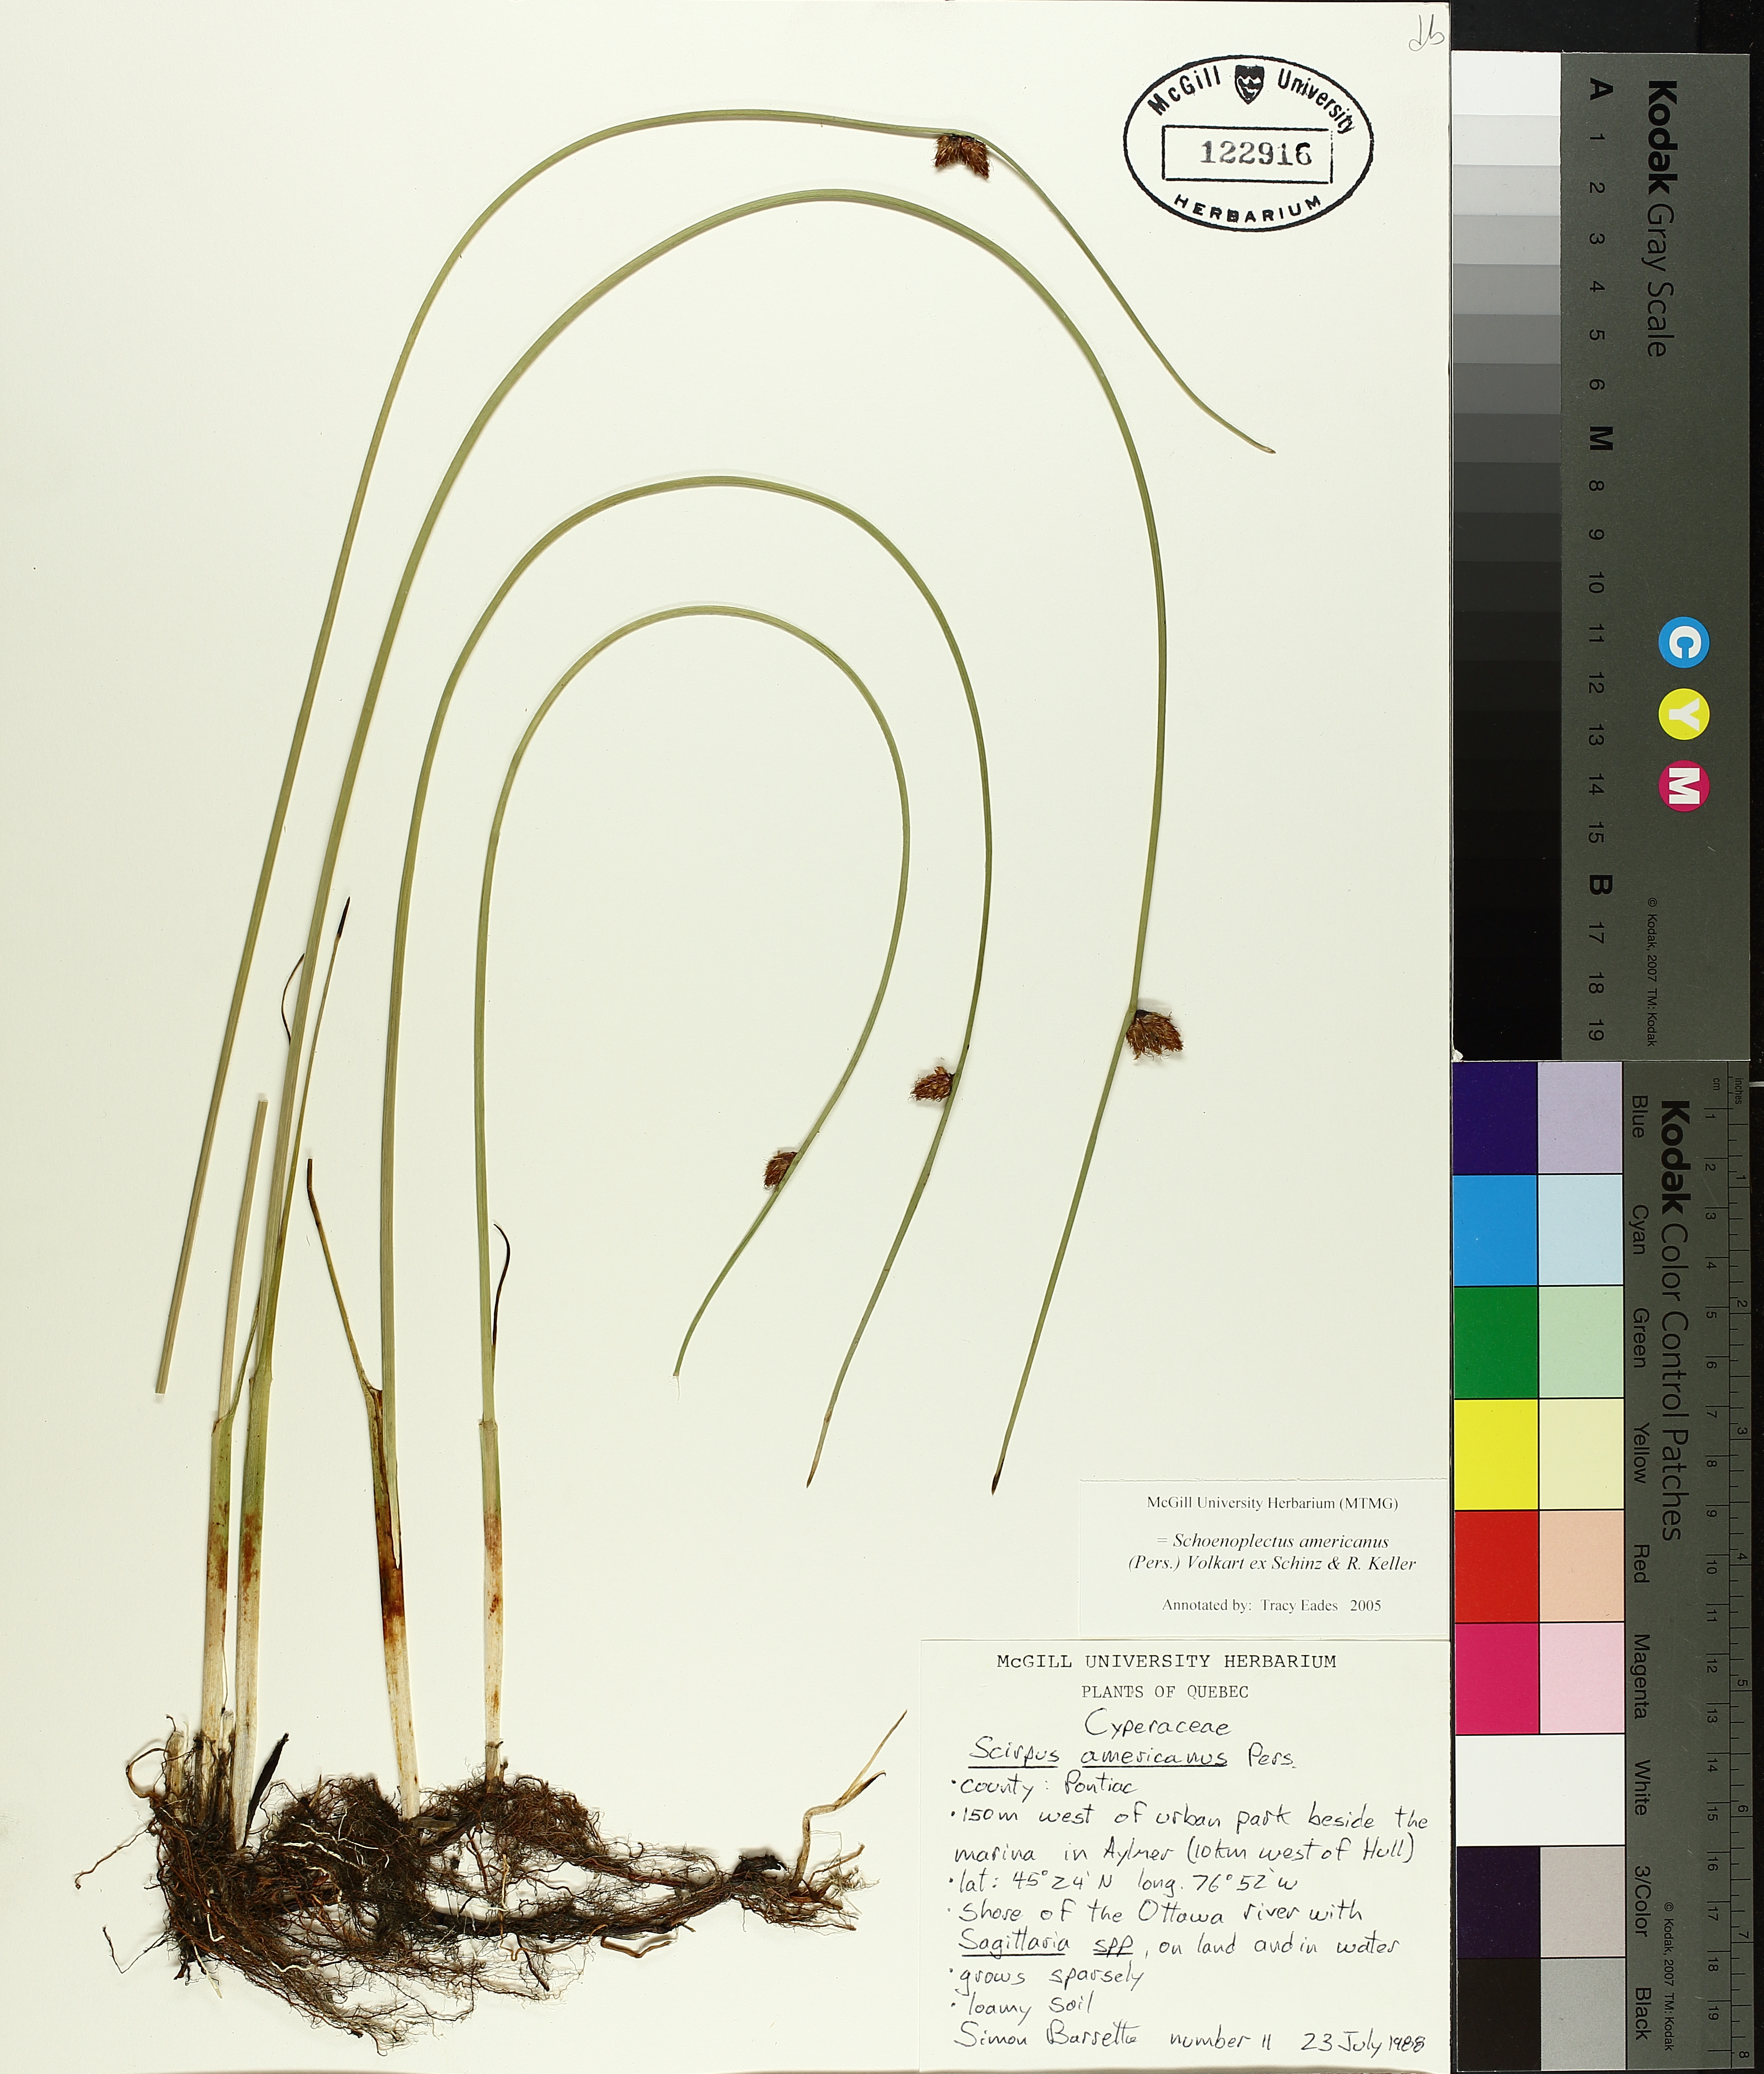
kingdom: Plantae
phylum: Tracheophyta
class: Liliopsida
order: Poales
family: Cyperaceae
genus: Schoenoplectus
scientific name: Schoenoplectus americanus
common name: American three-square bulrush
